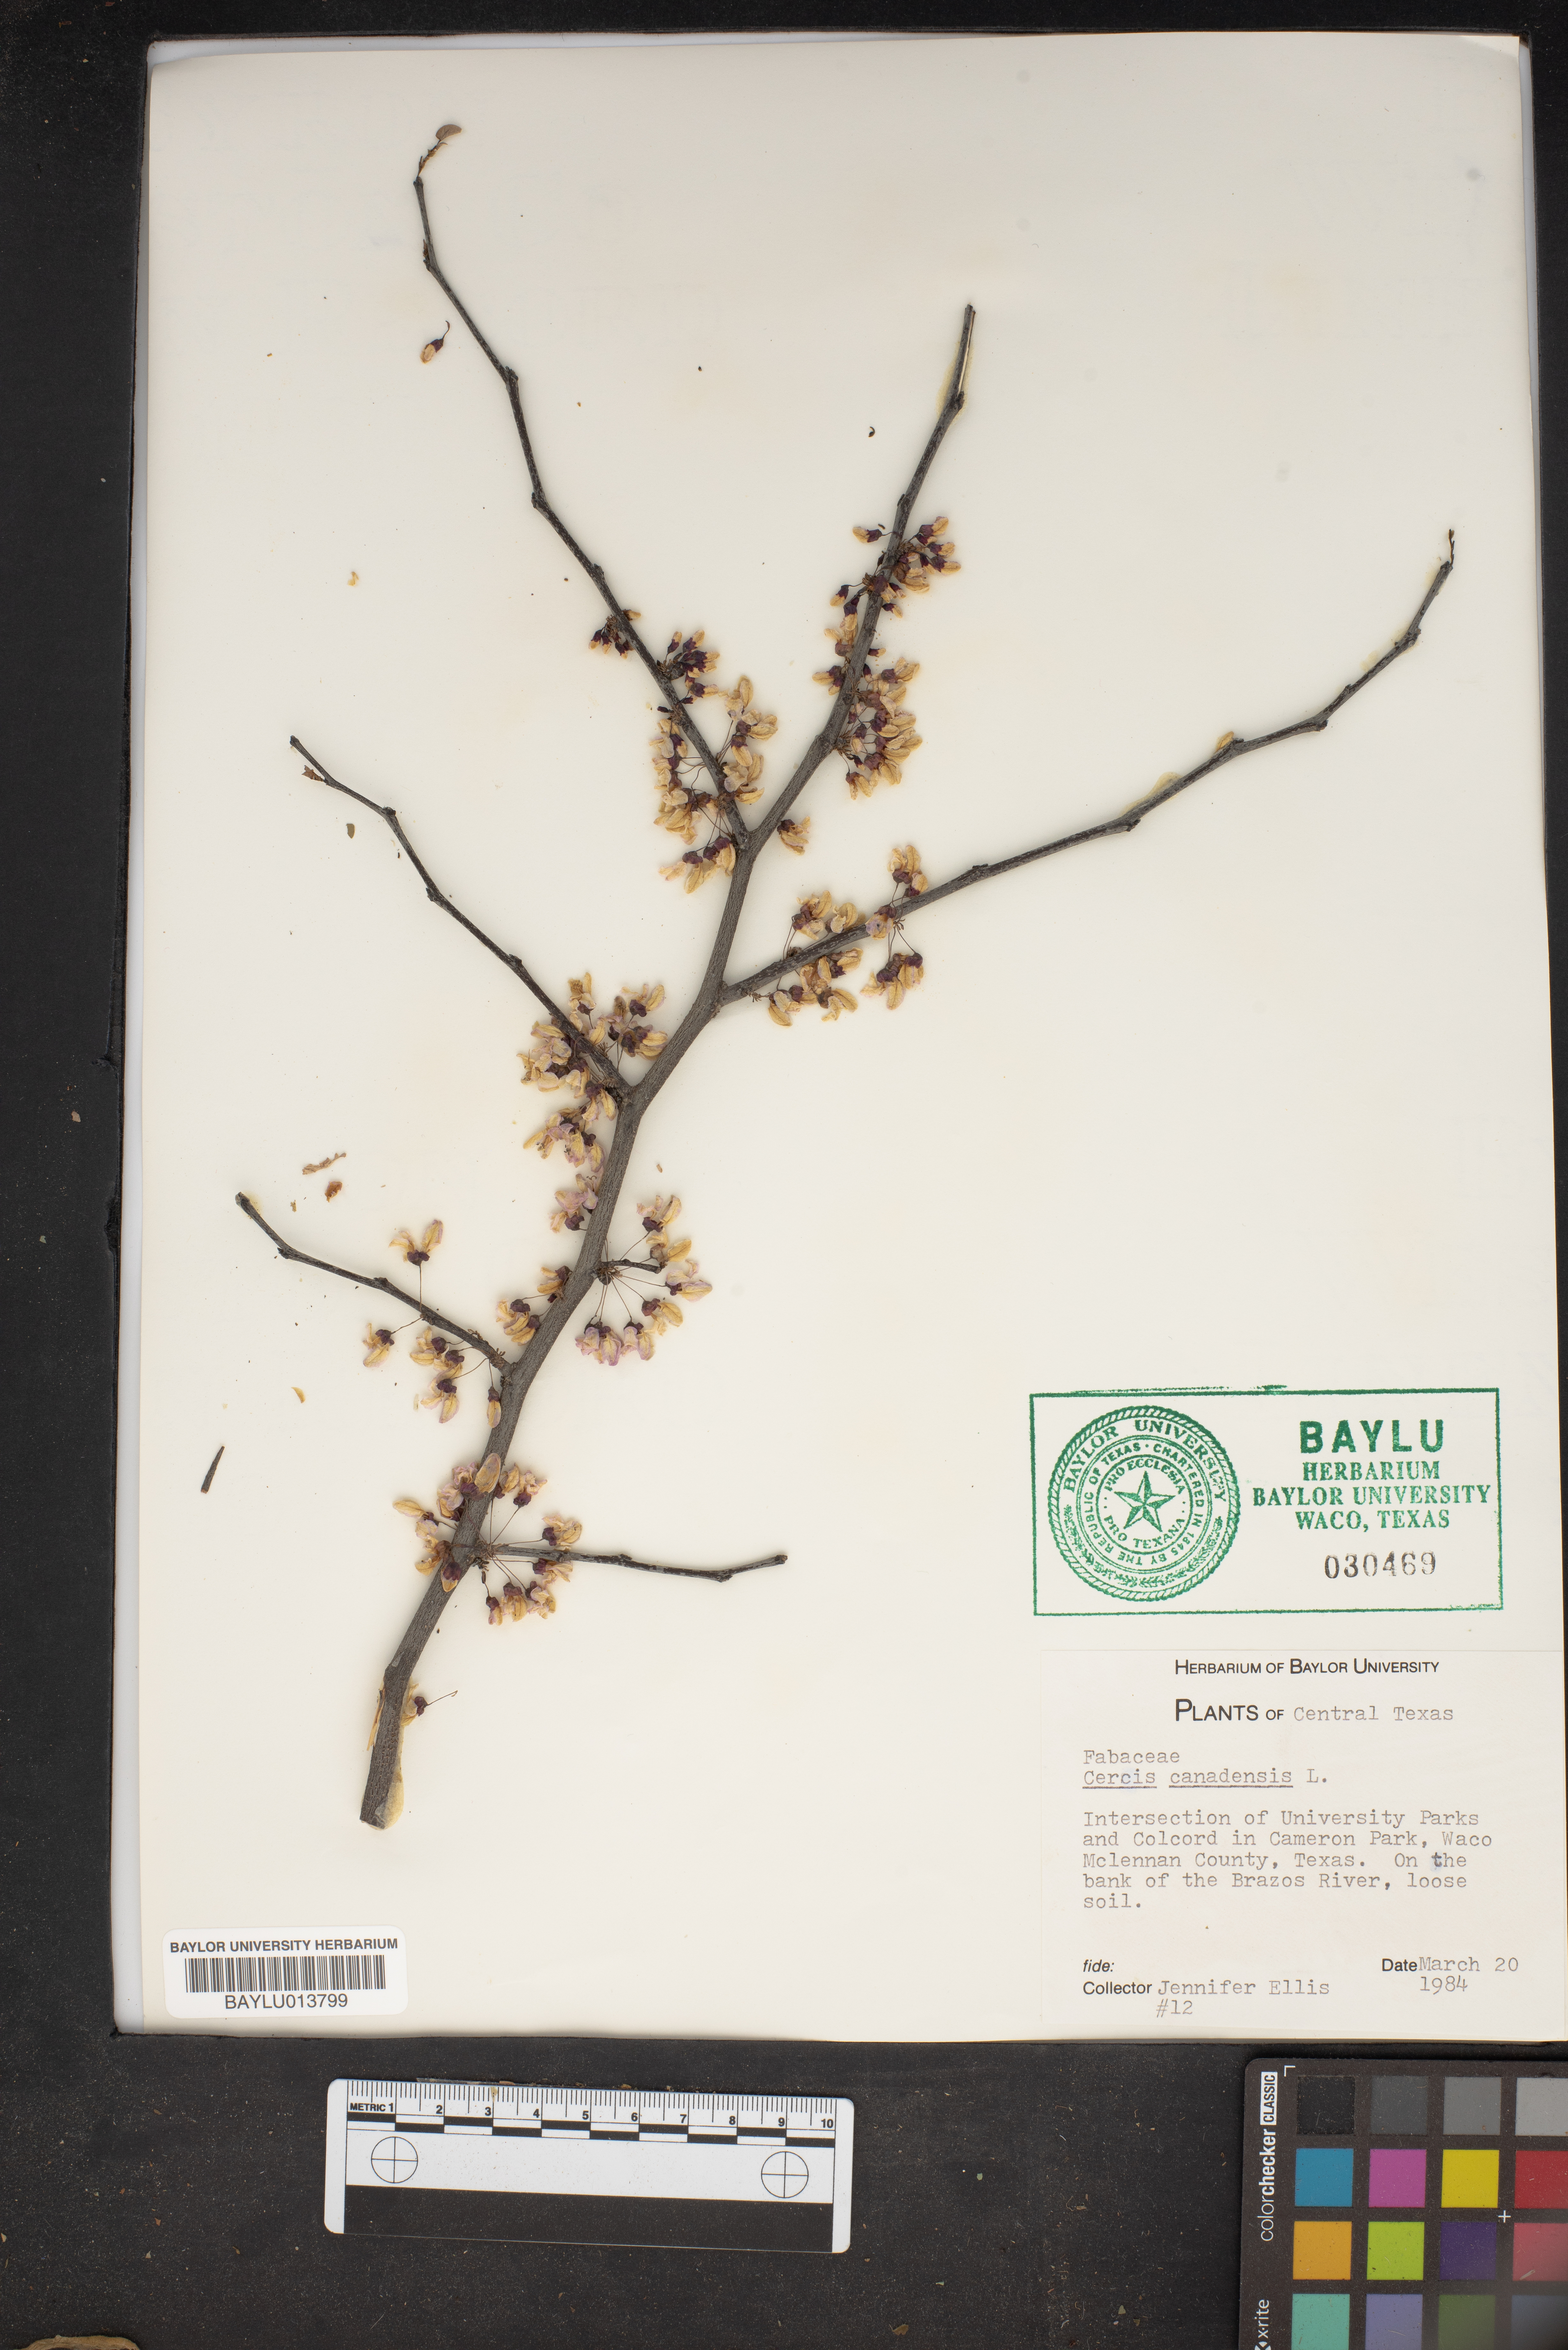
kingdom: Plantae
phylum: Tracheophyta
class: Magnoliopsida
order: Fabales
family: Fabaceae
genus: Cercis
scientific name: Cercis canadensis
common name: Eastern redbud
